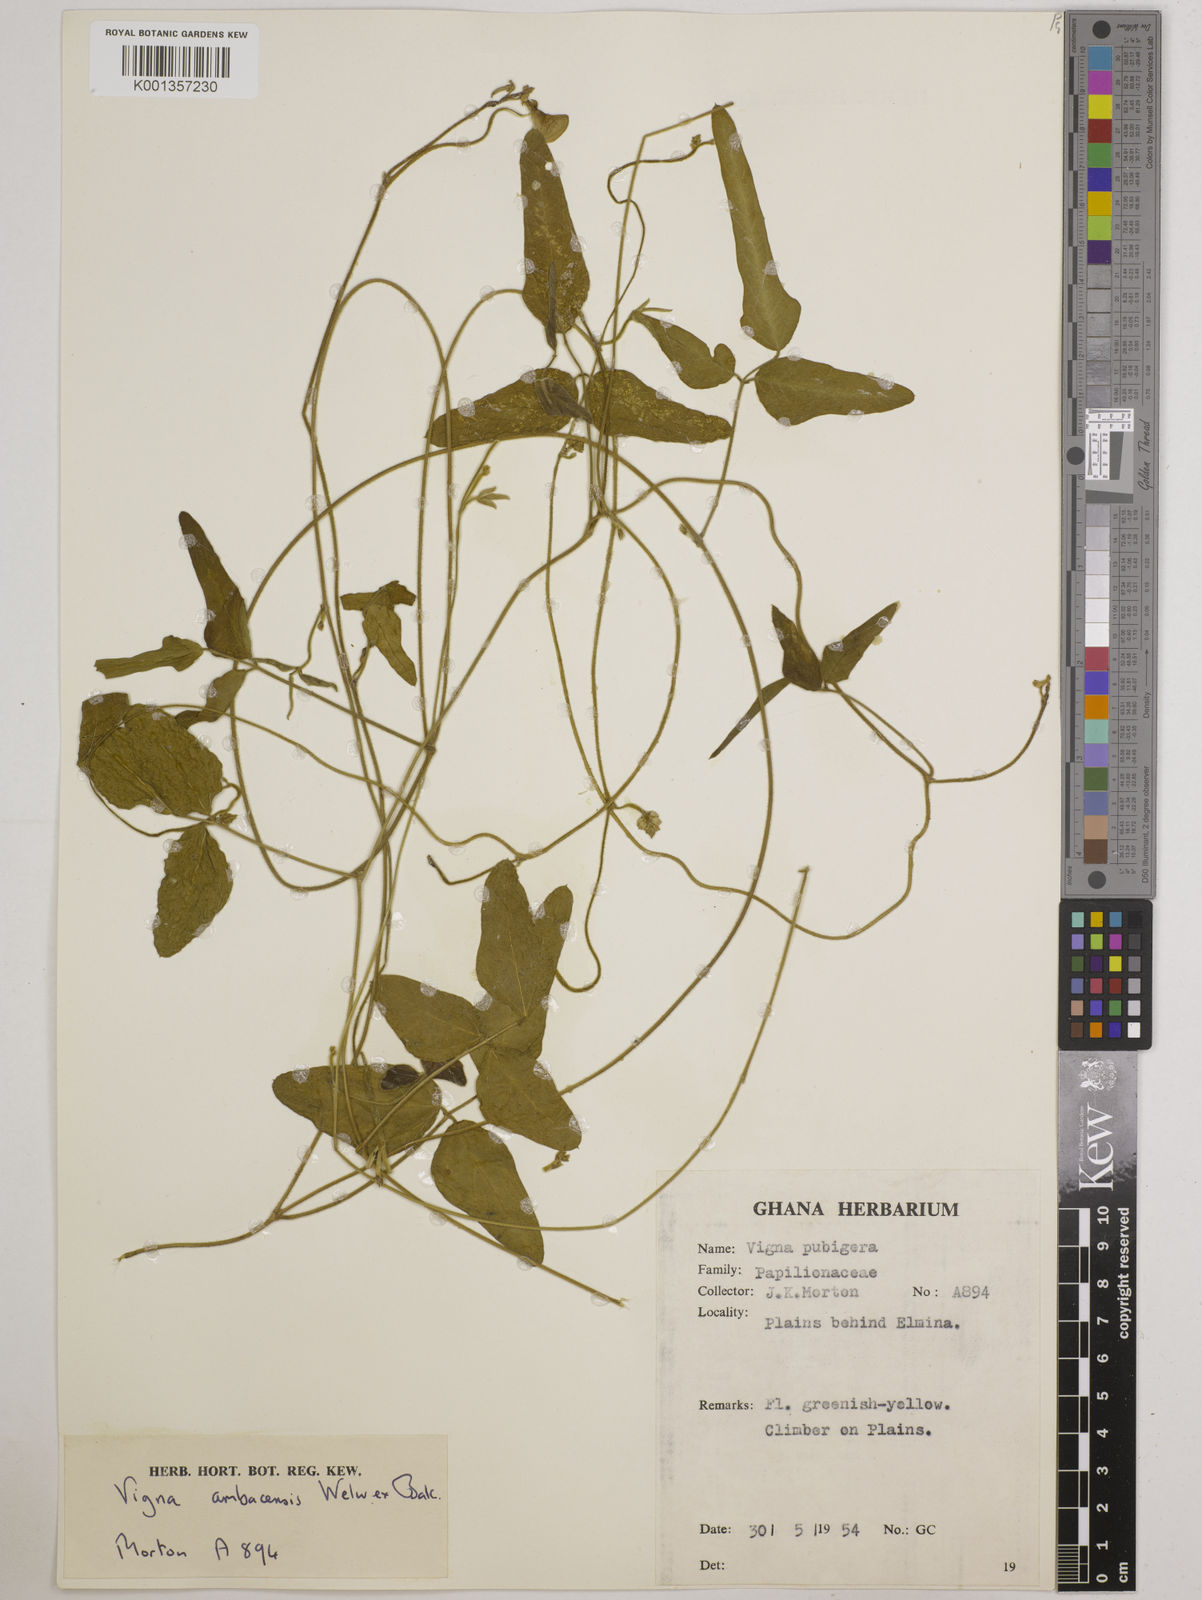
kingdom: Plantae
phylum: Tracheophyta
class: Magnoliopsida
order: Fabales
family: Fabaceae
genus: Vigna
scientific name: Vigna ambacensis
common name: Tsarkiyan zomo
